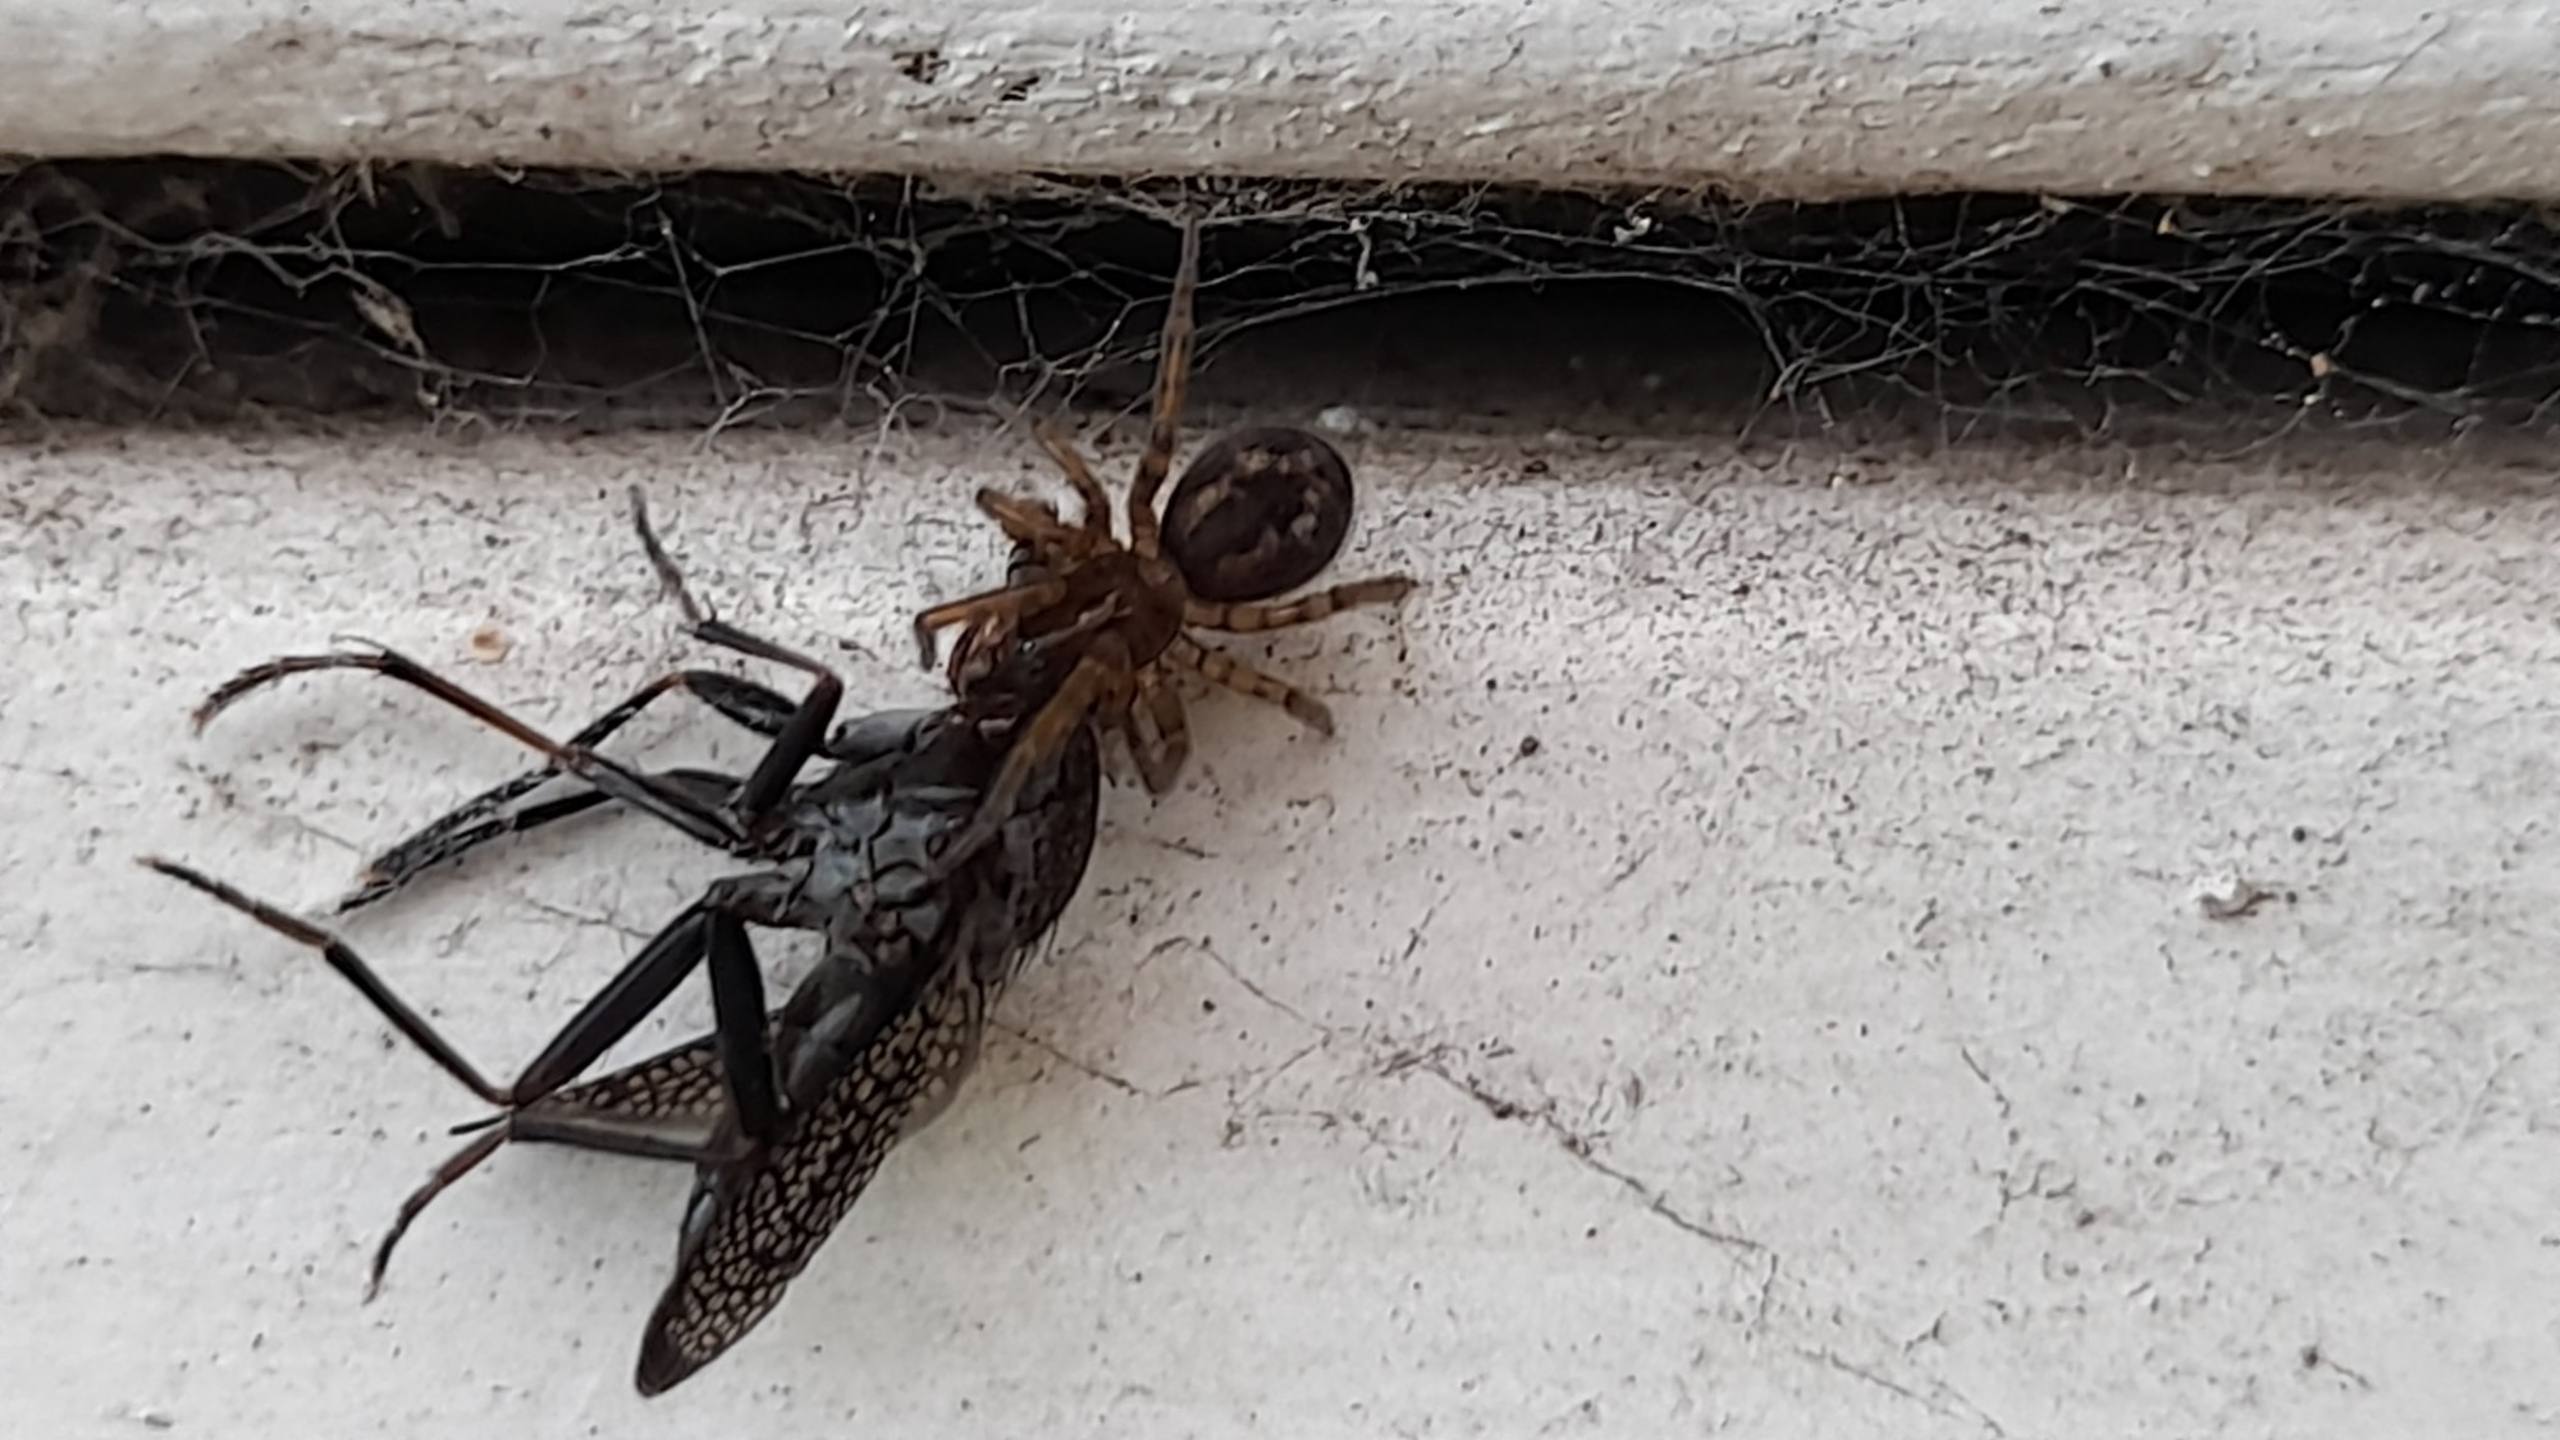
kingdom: Animalia
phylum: Arthropoda
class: Arachnida
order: Araneae
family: Amaurobiidae
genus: Amaurobius
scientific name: Amaurobius similis
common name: Huskartespinder
